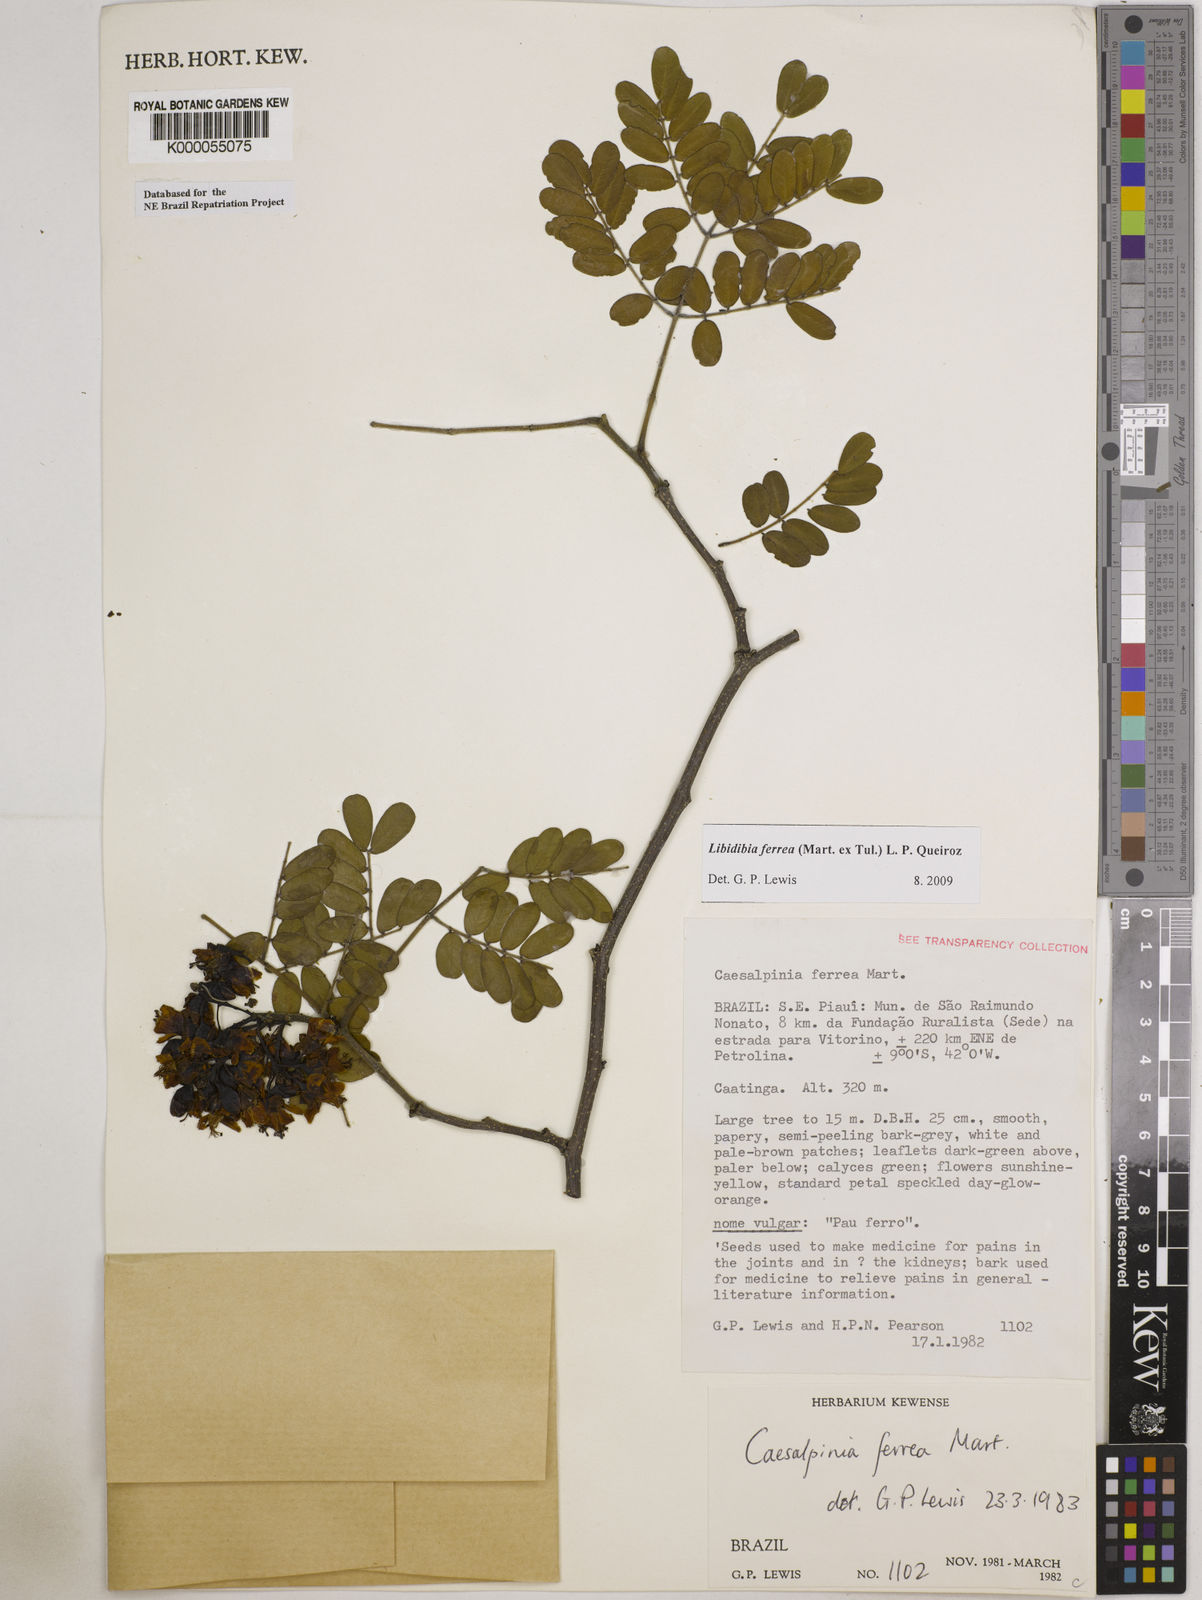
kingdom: Plantae
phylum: Tracheophyta
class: Magnoliopsida
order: Fabales
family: Fabaceae
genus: Libidibia
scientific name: Libidibia ferrea
